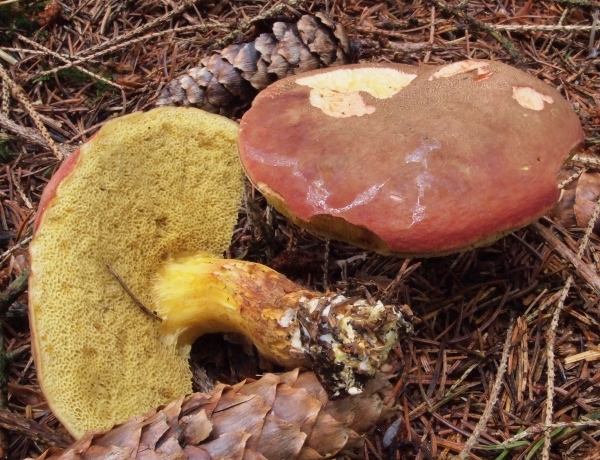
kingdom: Fungi
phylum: Basidiomycota
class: Agaricomycetes
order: Boletales
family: Boletaceae
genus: Xerocomellus
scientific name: Xerocomellus pruinatus
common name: dugget rørhat
